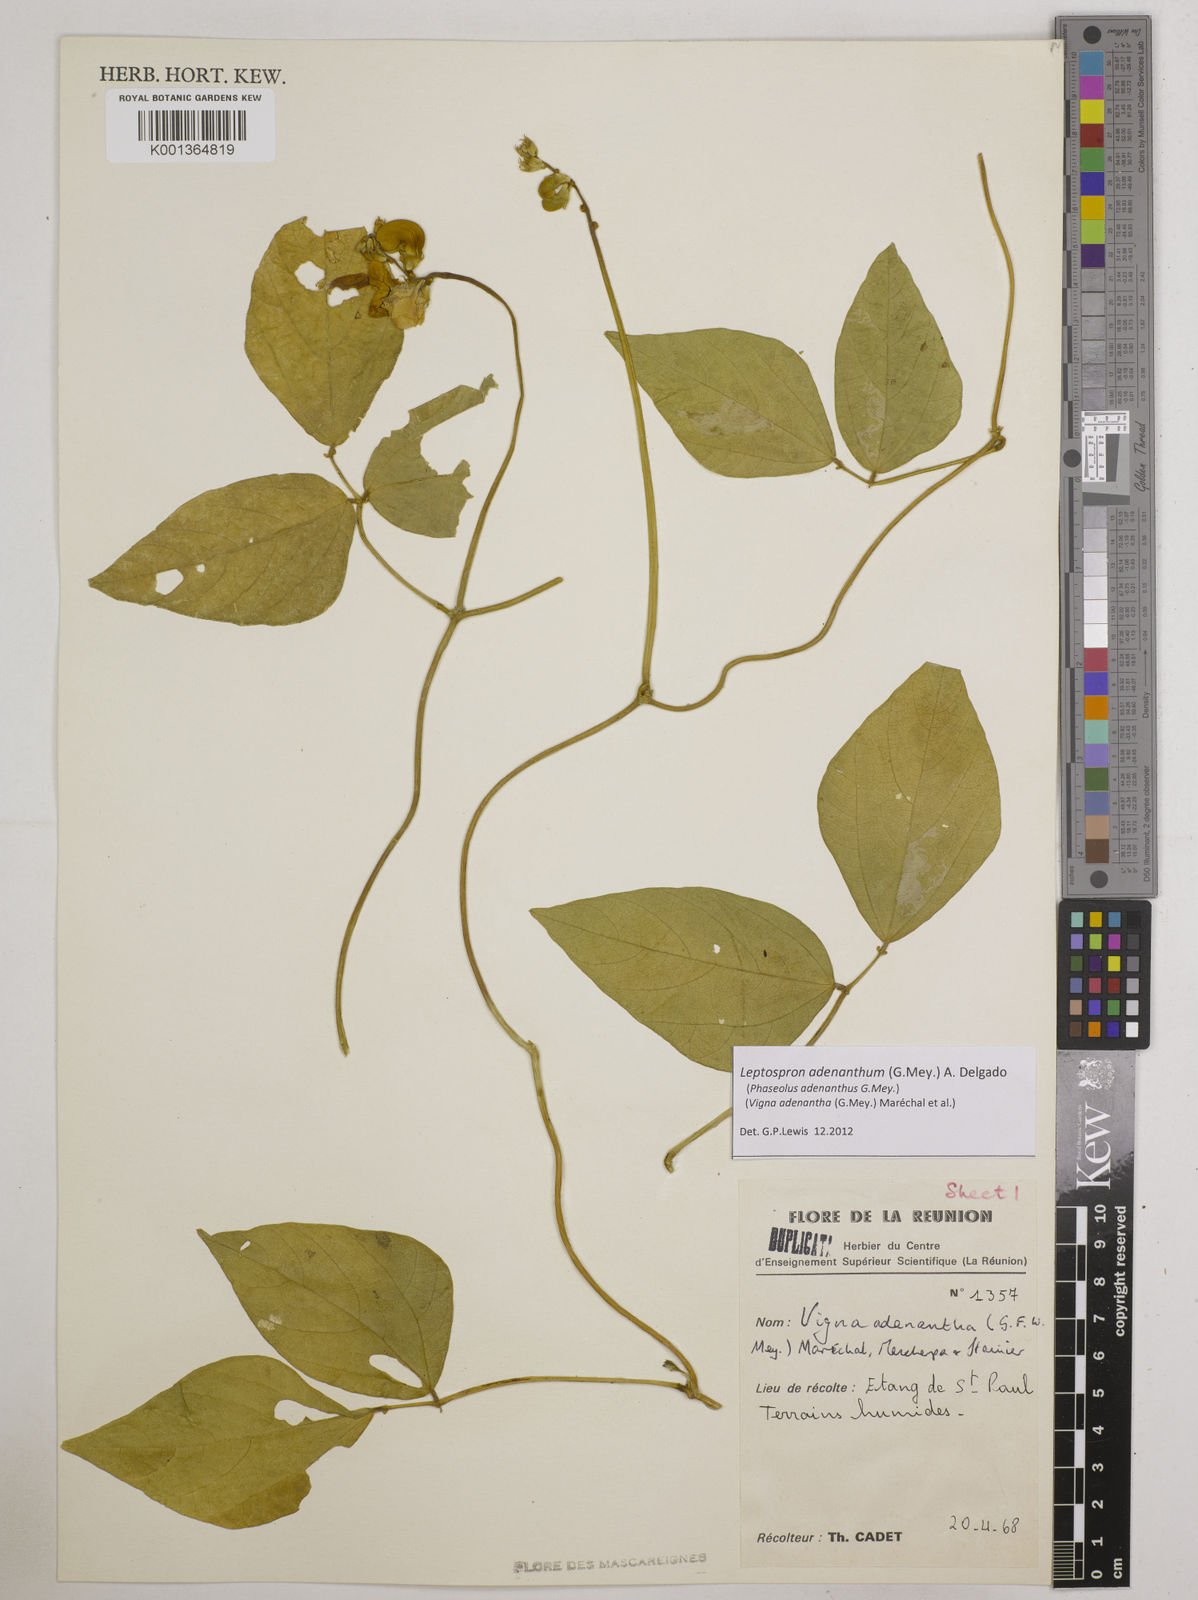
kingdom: Plantae
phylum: Tracheophyta
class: Magnoliopsida
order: Fabales
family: Fabaceae
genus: Leptospron
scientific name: Leptospron adenanthum
